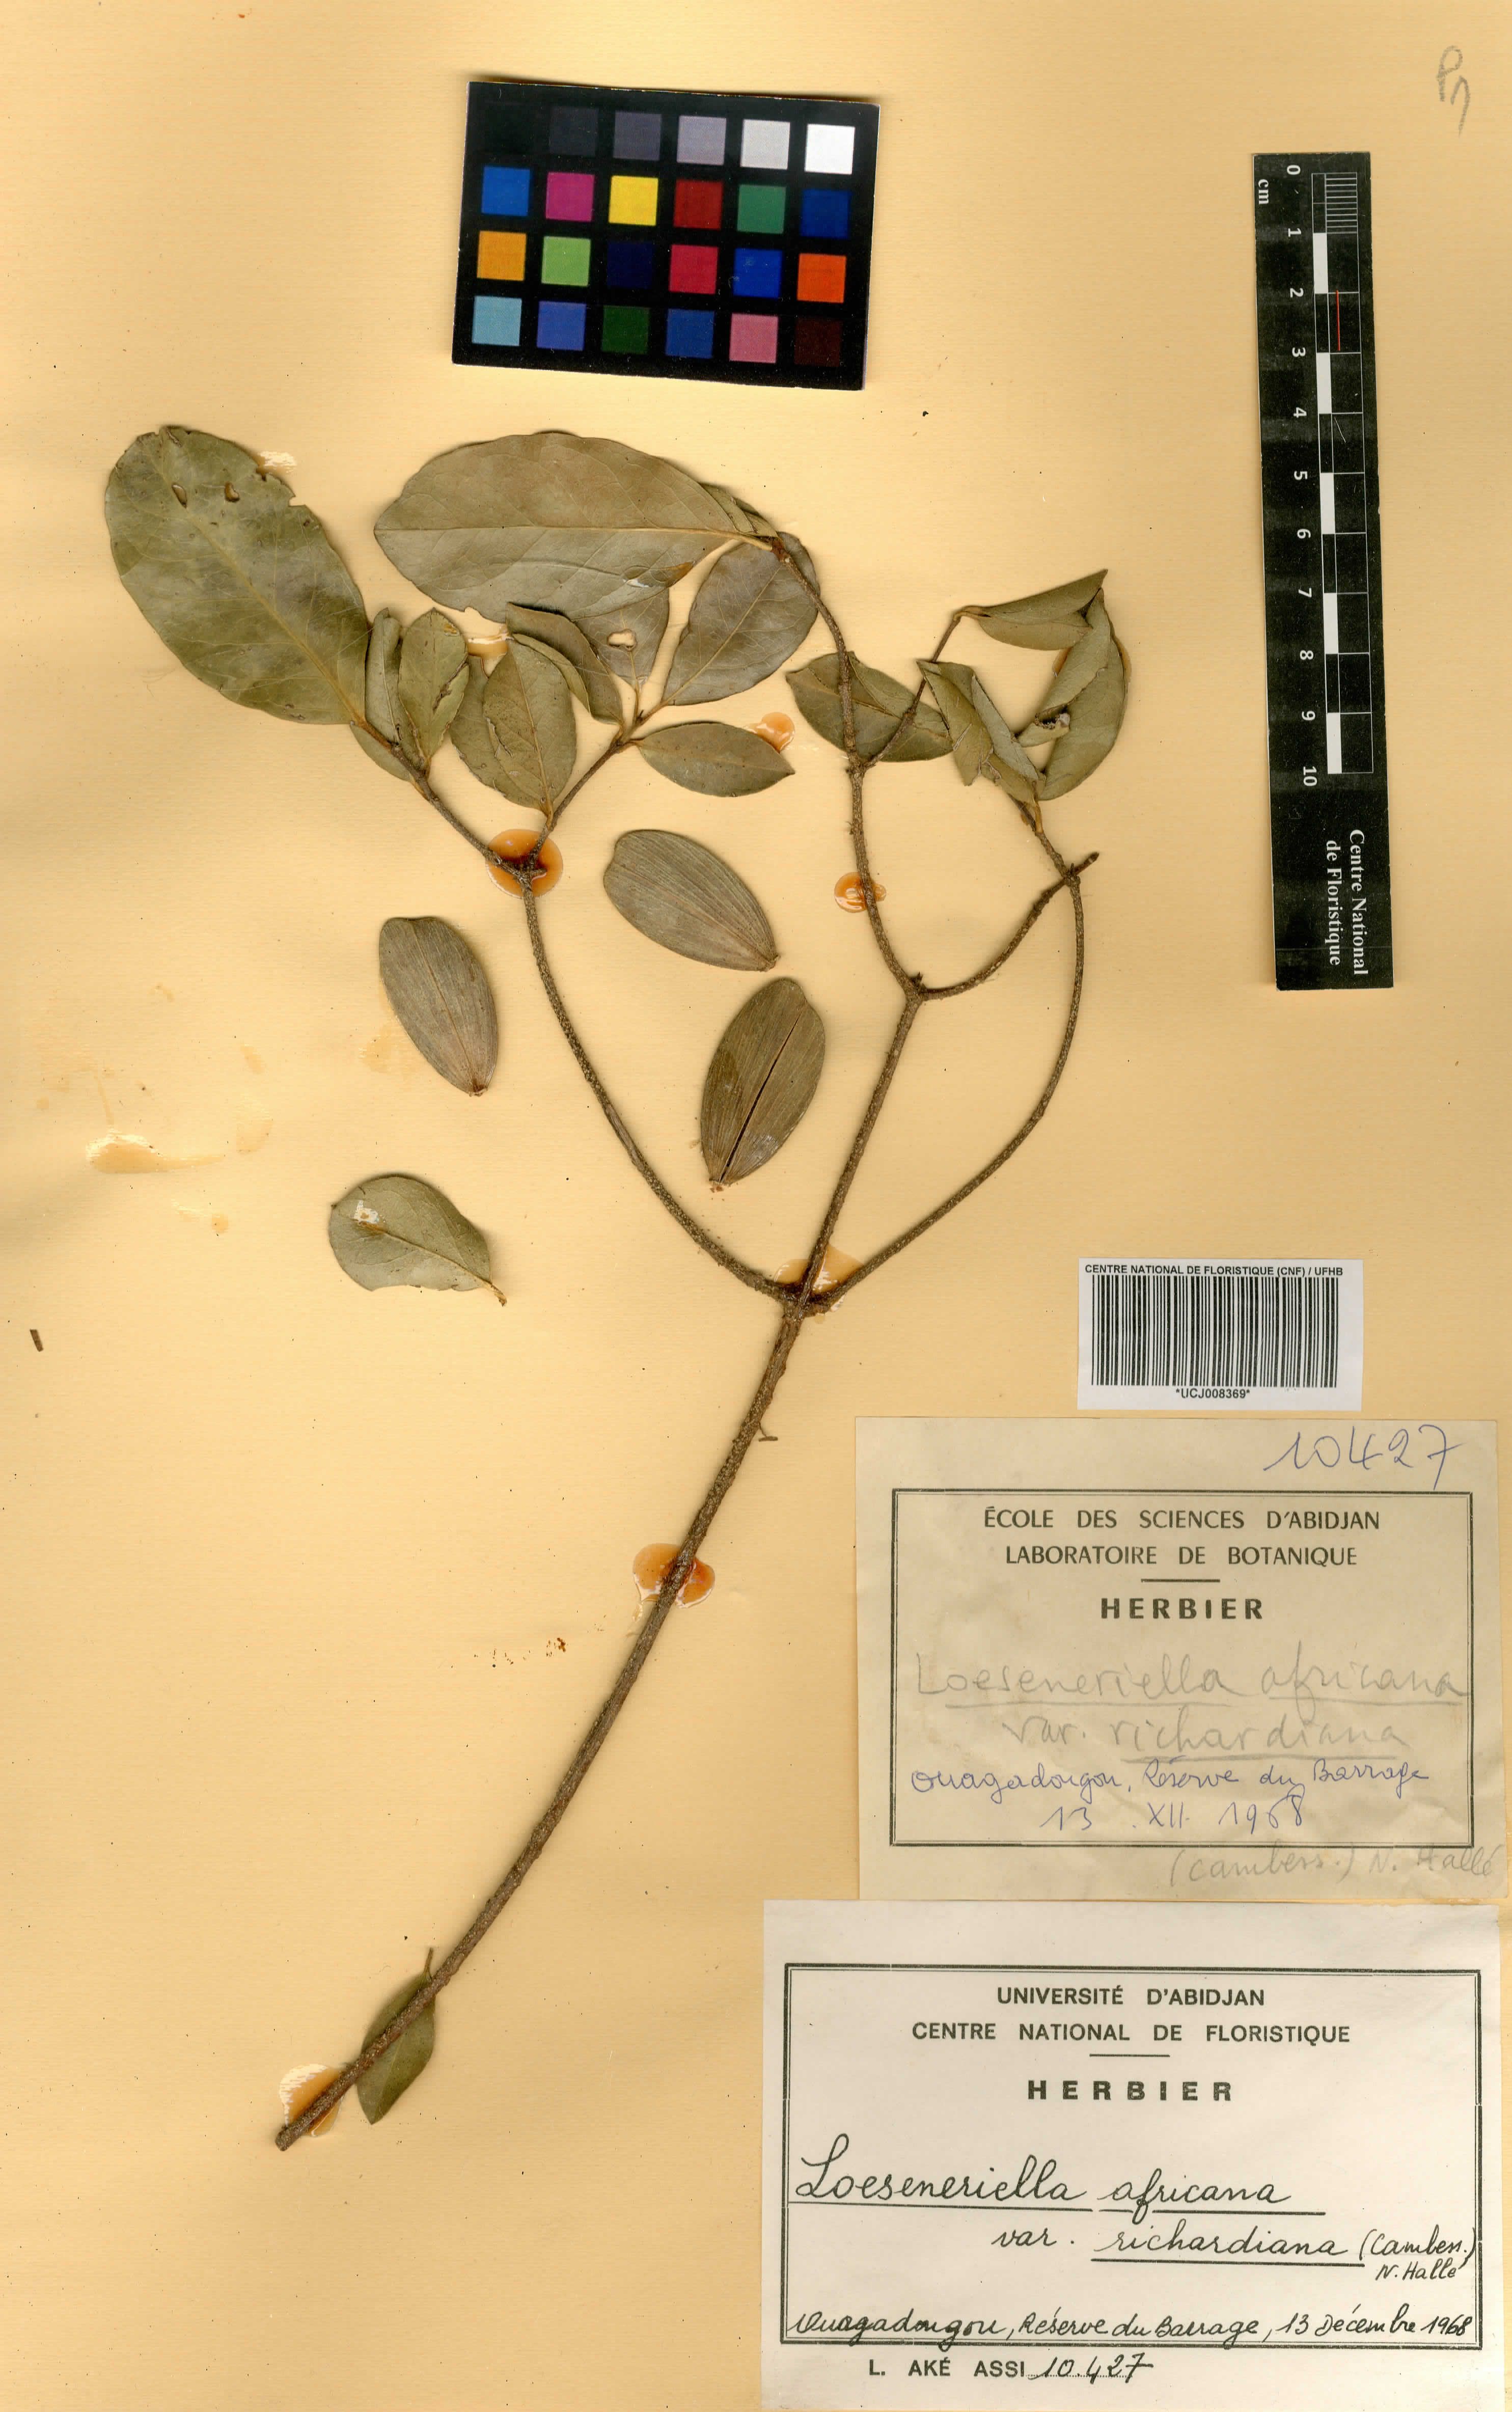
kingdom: Plantae
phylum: Tracheophyta
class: Magnoliopsida
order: Celastrales
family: Celastraceae
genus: Loeseneriella
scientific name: Loeseneriella africana
